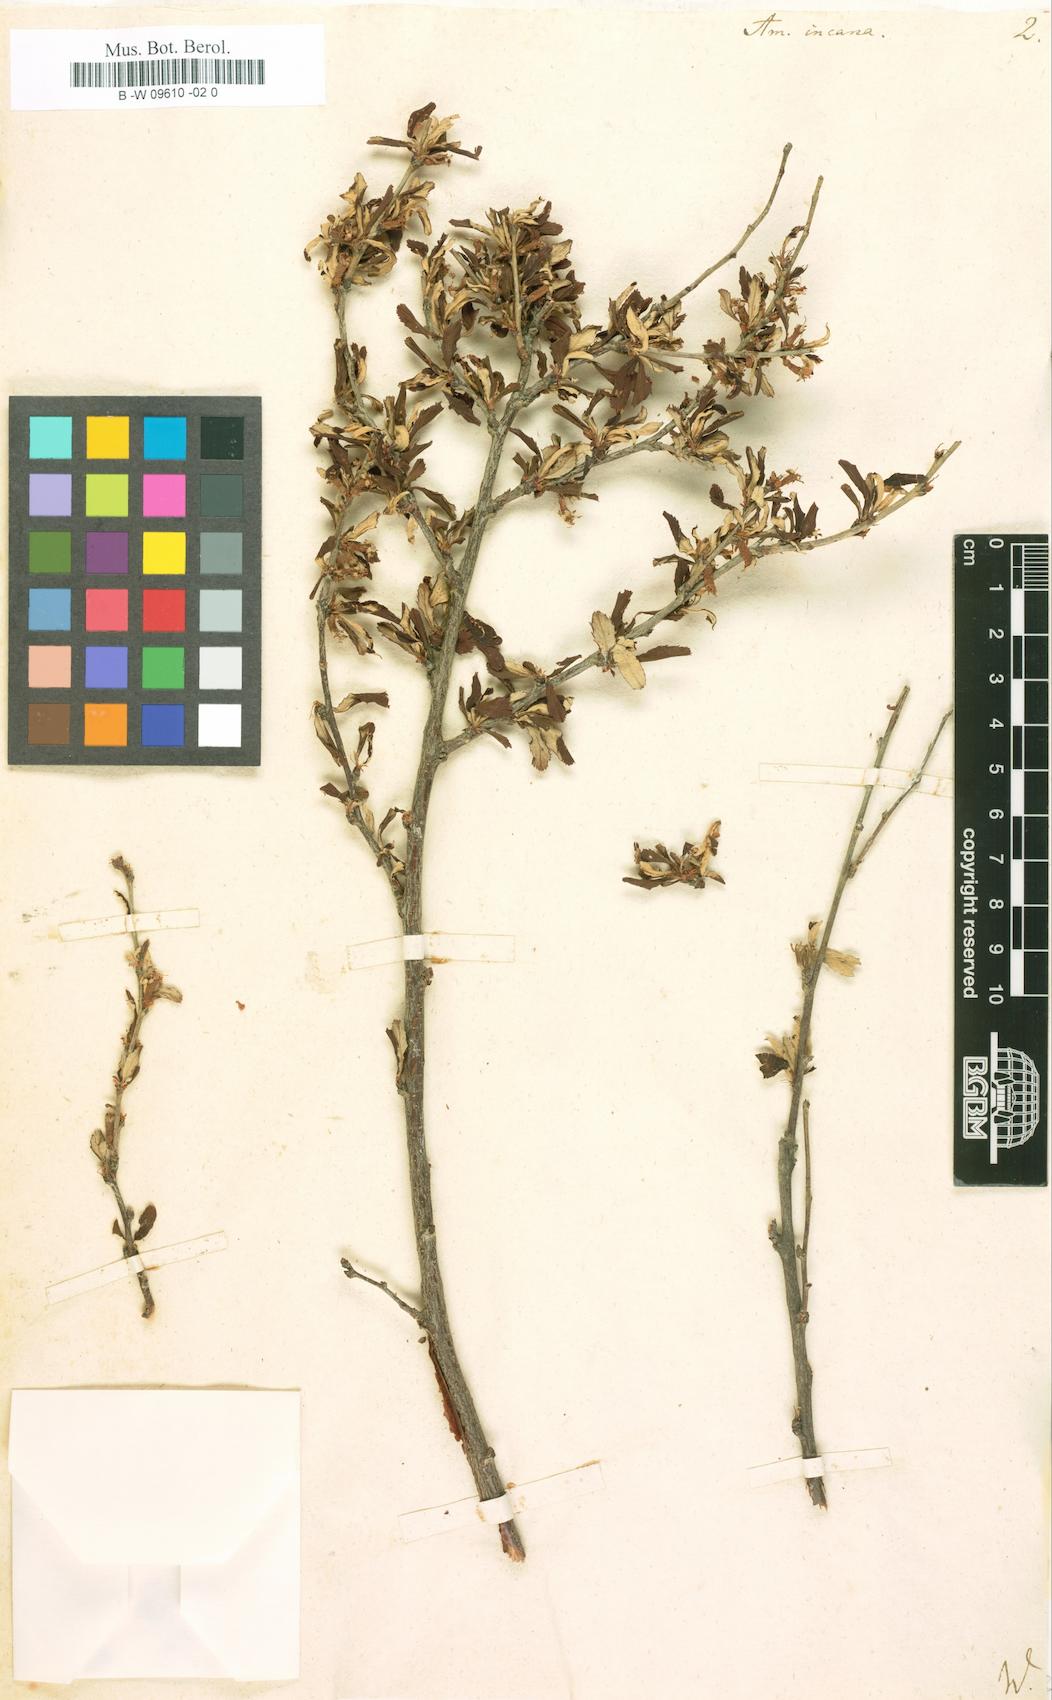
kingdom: Plantae
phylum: Tracheophyta
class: Magnoliopsida
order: Rosales
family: Rosaceae
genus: Prunus
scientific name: Prunus
